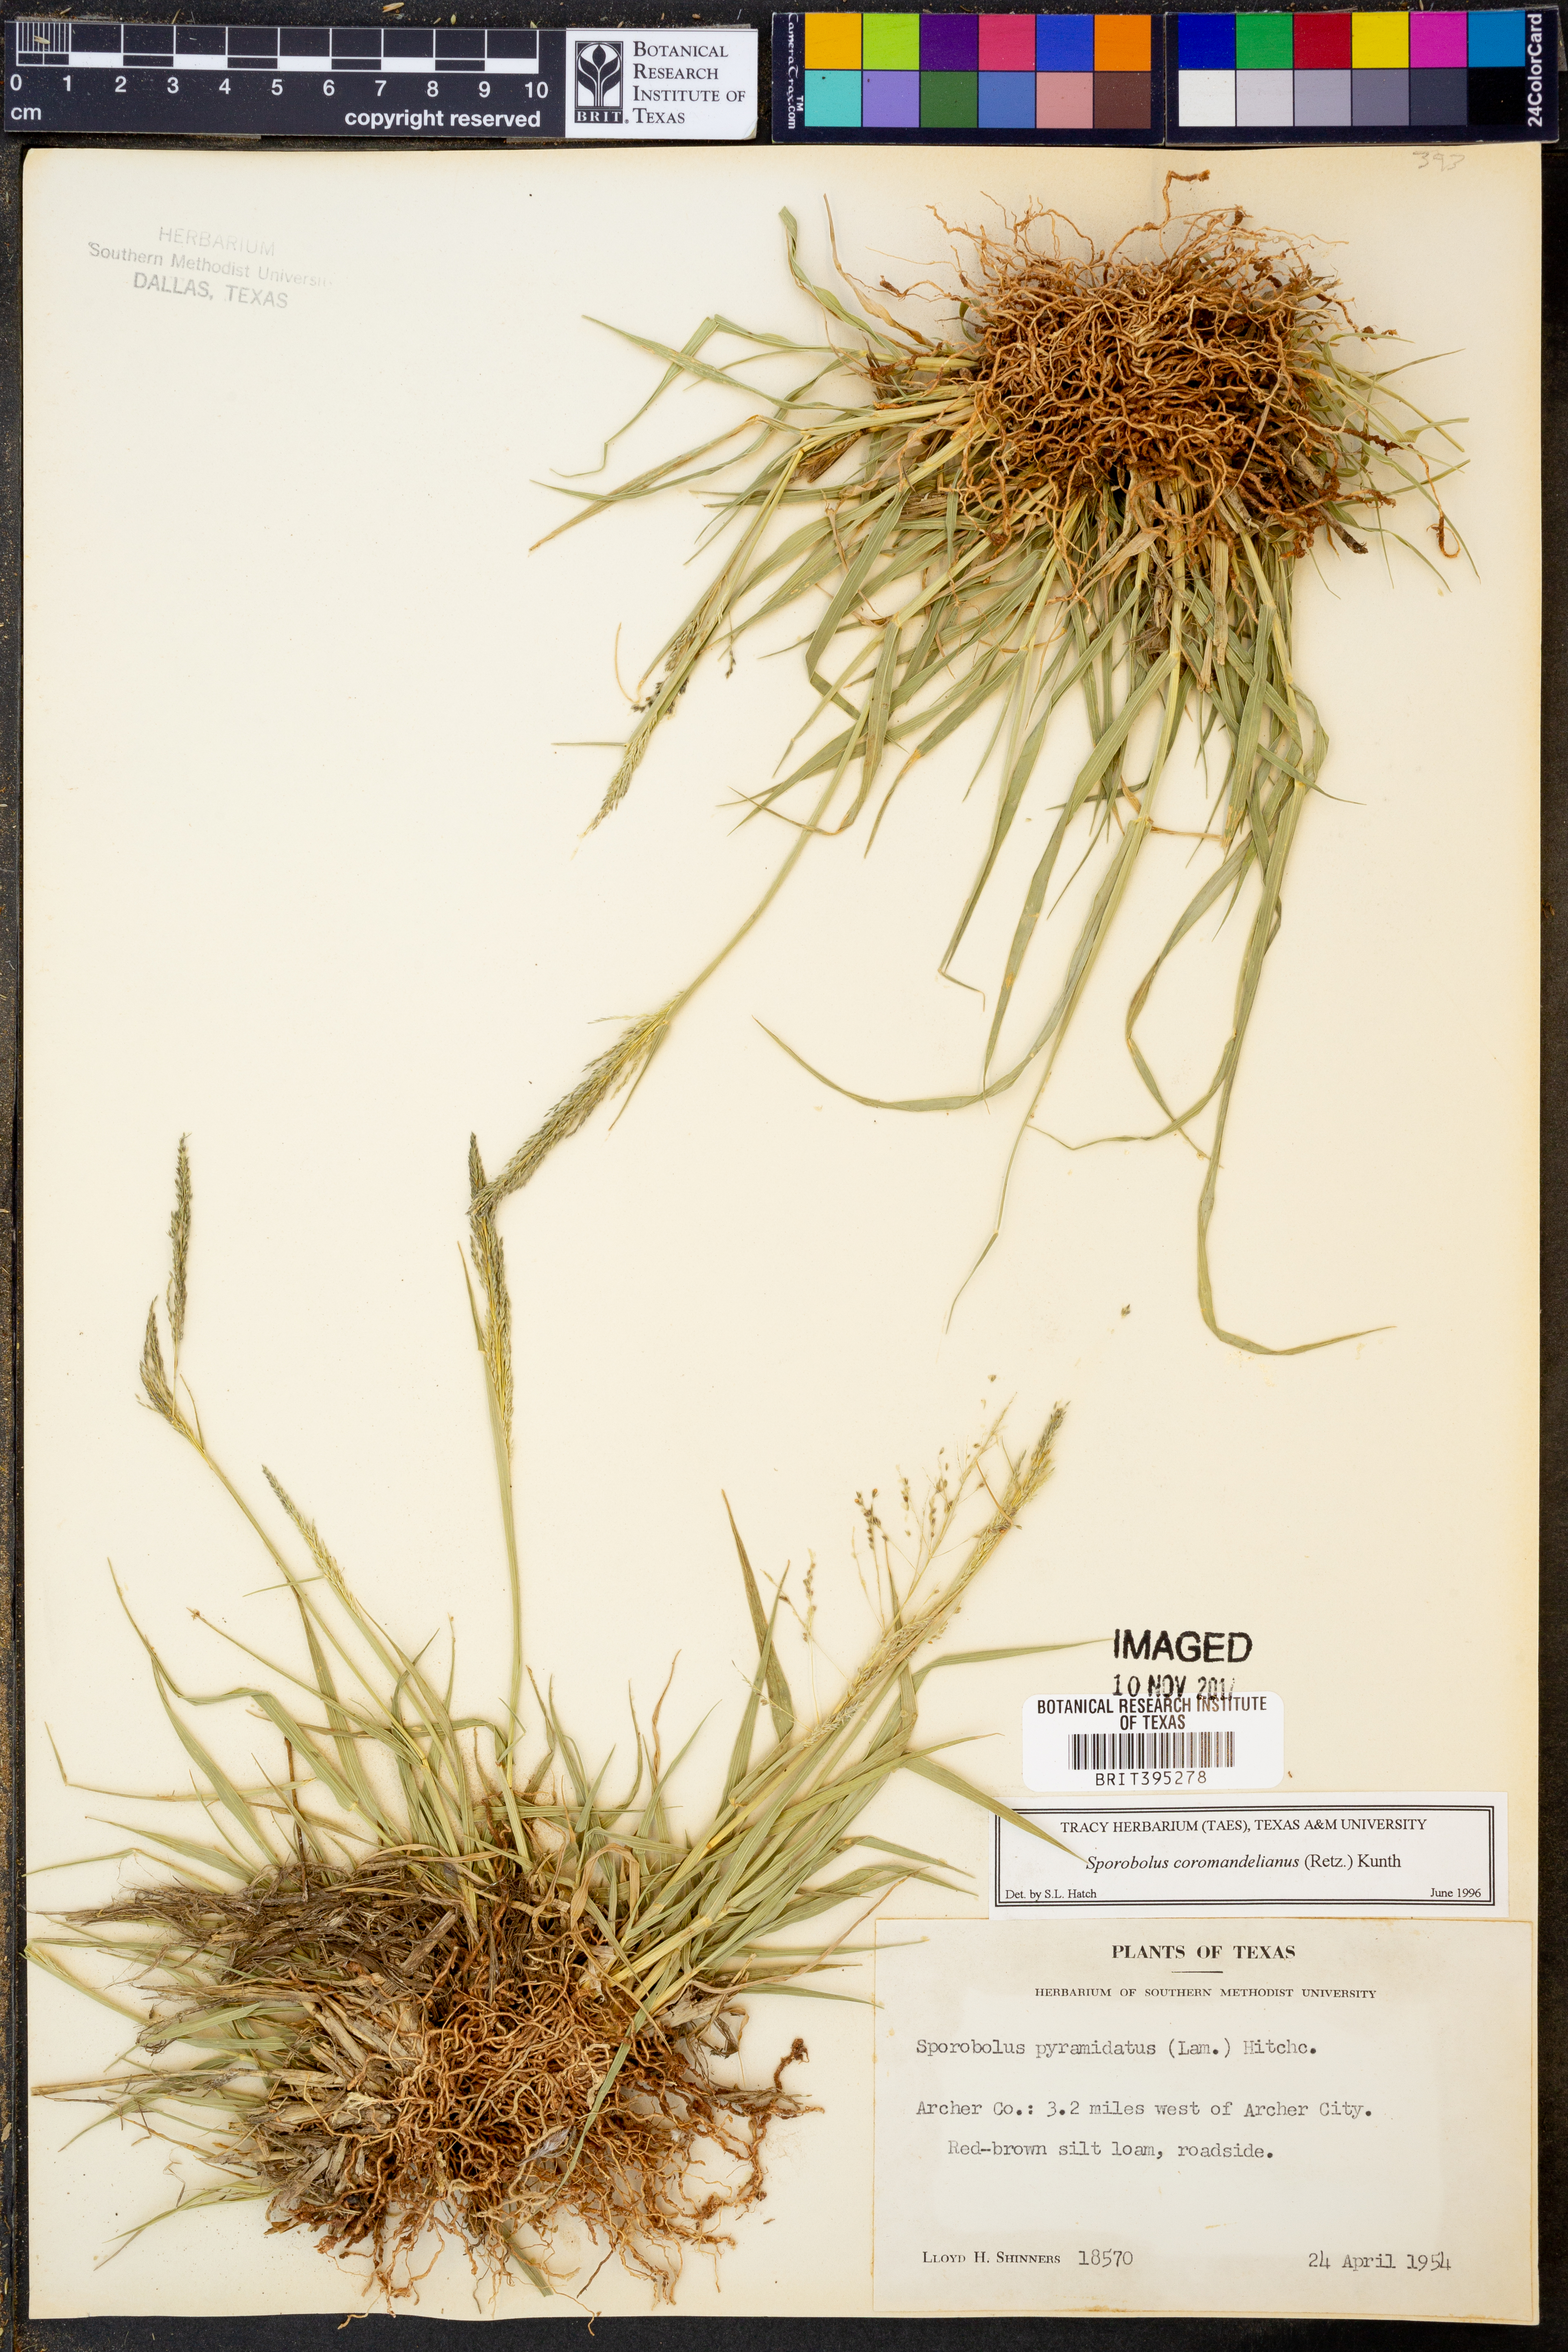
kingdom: Plantae
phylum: Tracheophyta
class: Liliopsida
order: Poales
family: Poaceae
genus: Sporobolus
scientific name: Sporobolus coromandelianus
